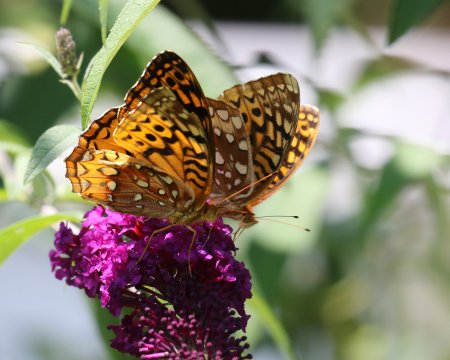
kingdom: Animalia
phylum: Arthropoda
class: Insecta
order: Lepidoptera
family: Nymphalidae
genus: Speyeria
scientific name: Speyeria cybele
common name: Great Spangled Fritillary
